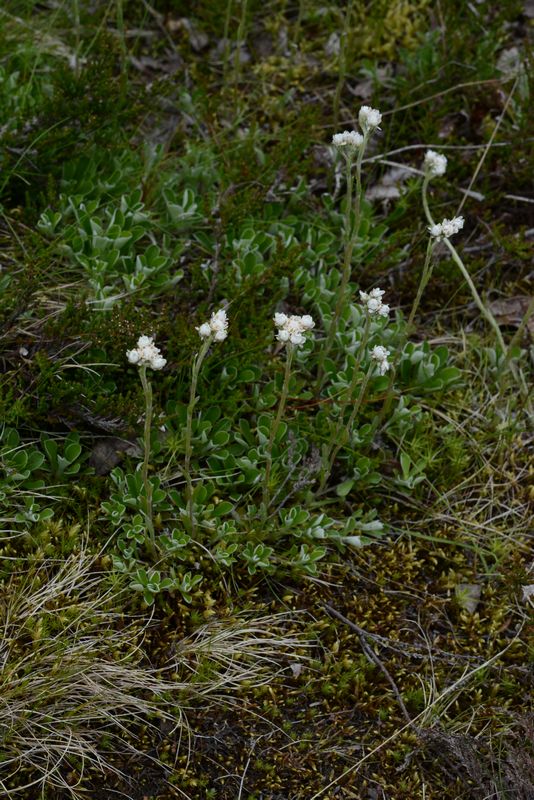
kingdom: Plantae
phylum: Tracheophyta
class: Magnoliopsida
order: Asterales
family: Asteraceae
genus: Antennaria
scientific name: Antennaria dioica
